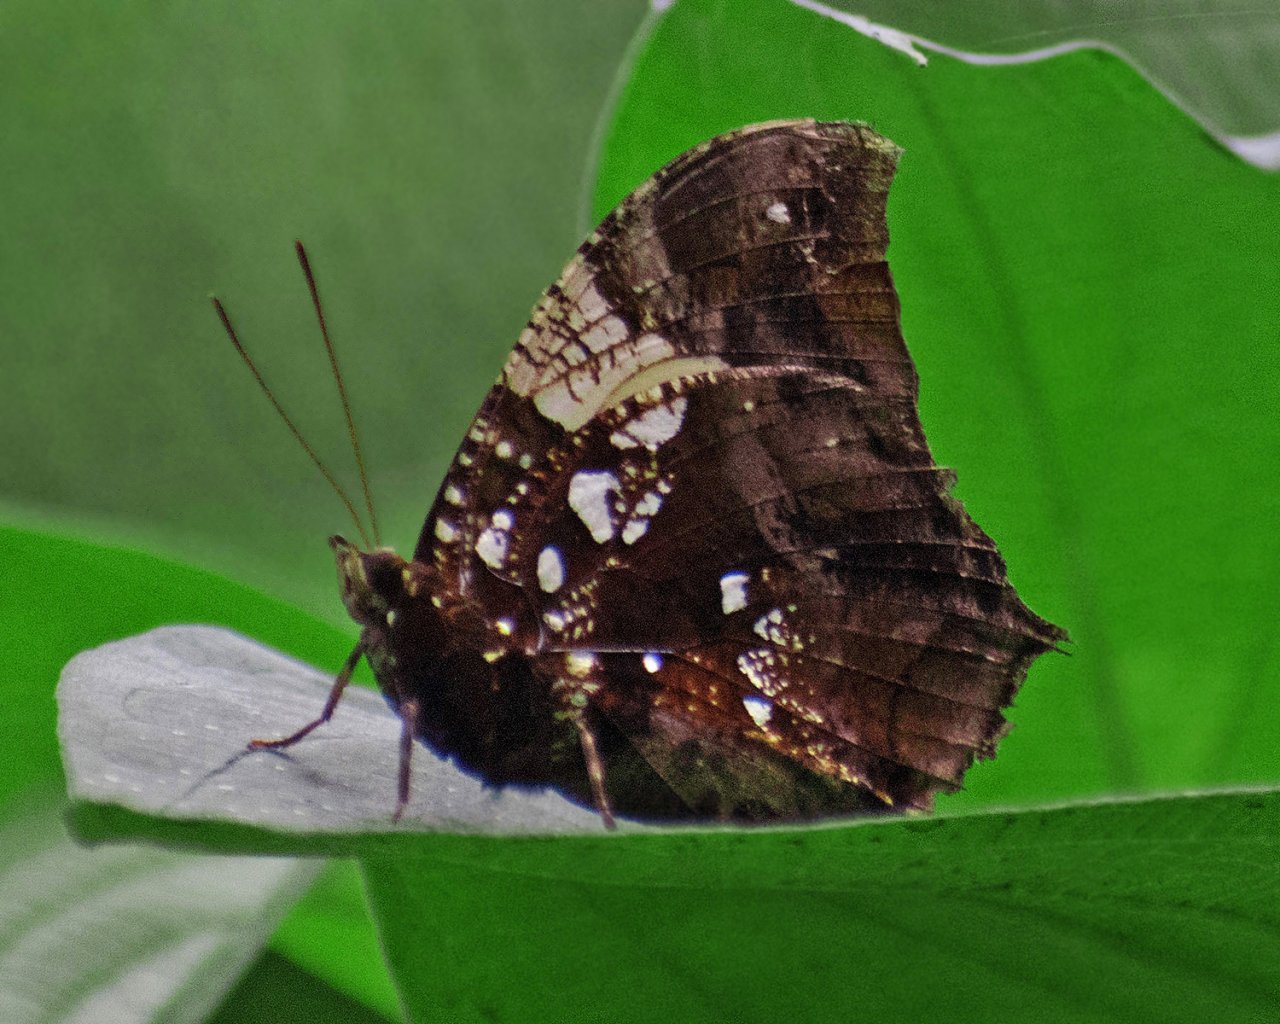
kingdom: Animalia
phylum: Arthropoda
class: Insecta
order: Lepidoptera
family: Nymphalidae
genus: Hypna
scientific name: Hypna clytemnestra
